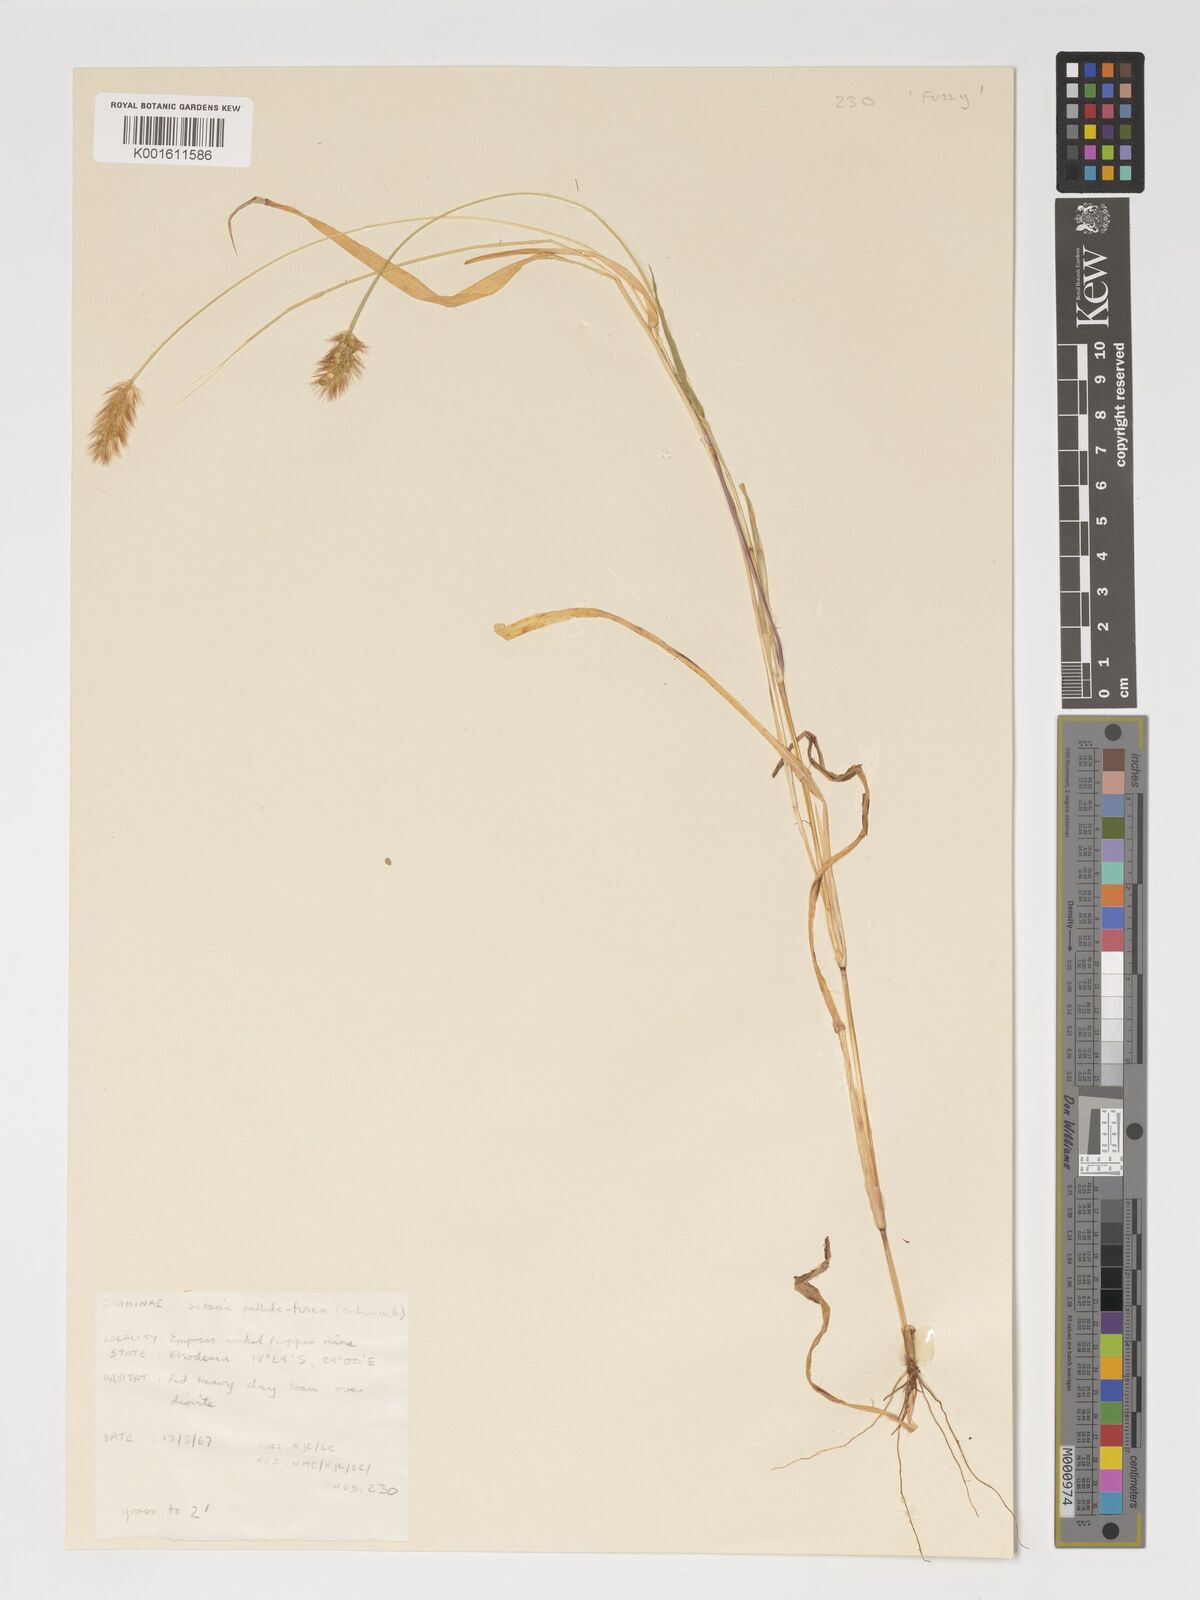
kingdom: Plantae
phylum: Tracheophyta
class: Liliopsida
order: Poales
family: Poaceae
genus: Setaria
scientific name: Setaria pumila
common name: Yellow bristle-grass
